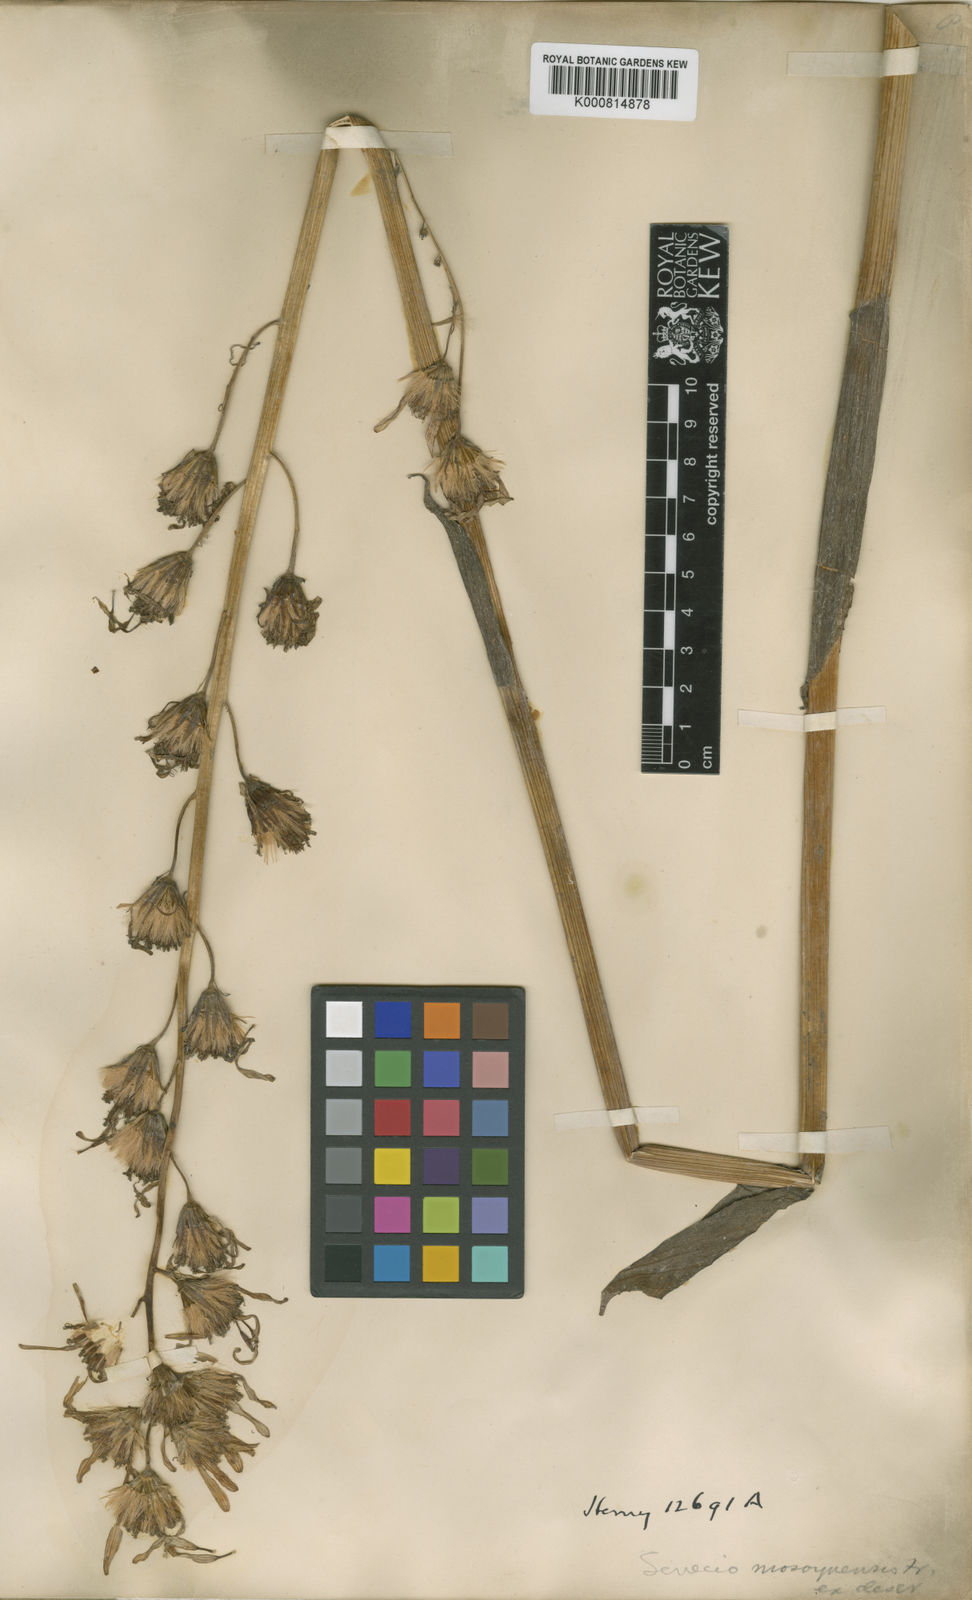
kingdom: Plantae
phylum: Tracheophyta
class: Magnoliopsida
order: Asterales
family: Asteraceae
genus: Ligularia
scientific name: Ligularia longifolia
